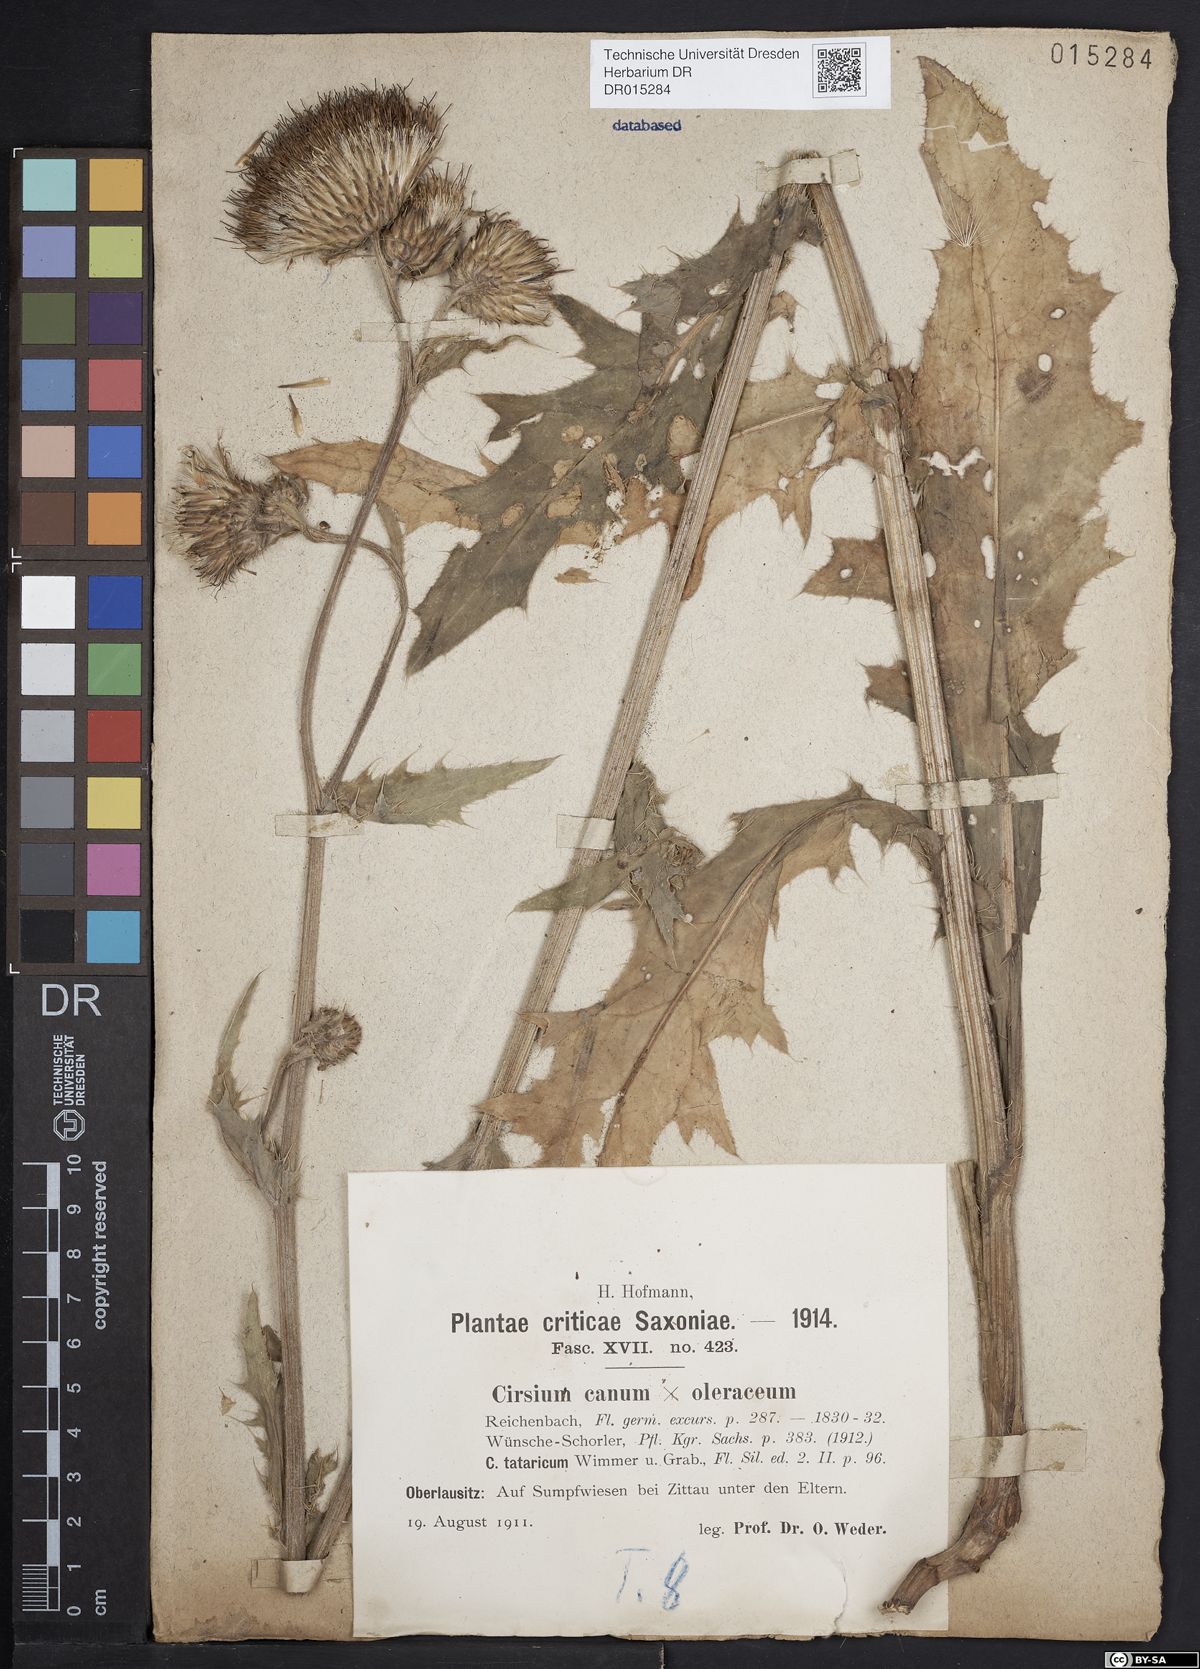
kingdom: Plantae
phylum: Tracheophyta
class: Magnoliopsida
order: Asterales
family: Asteraceae
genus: Cirsium
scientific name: Cirsium tataricum
